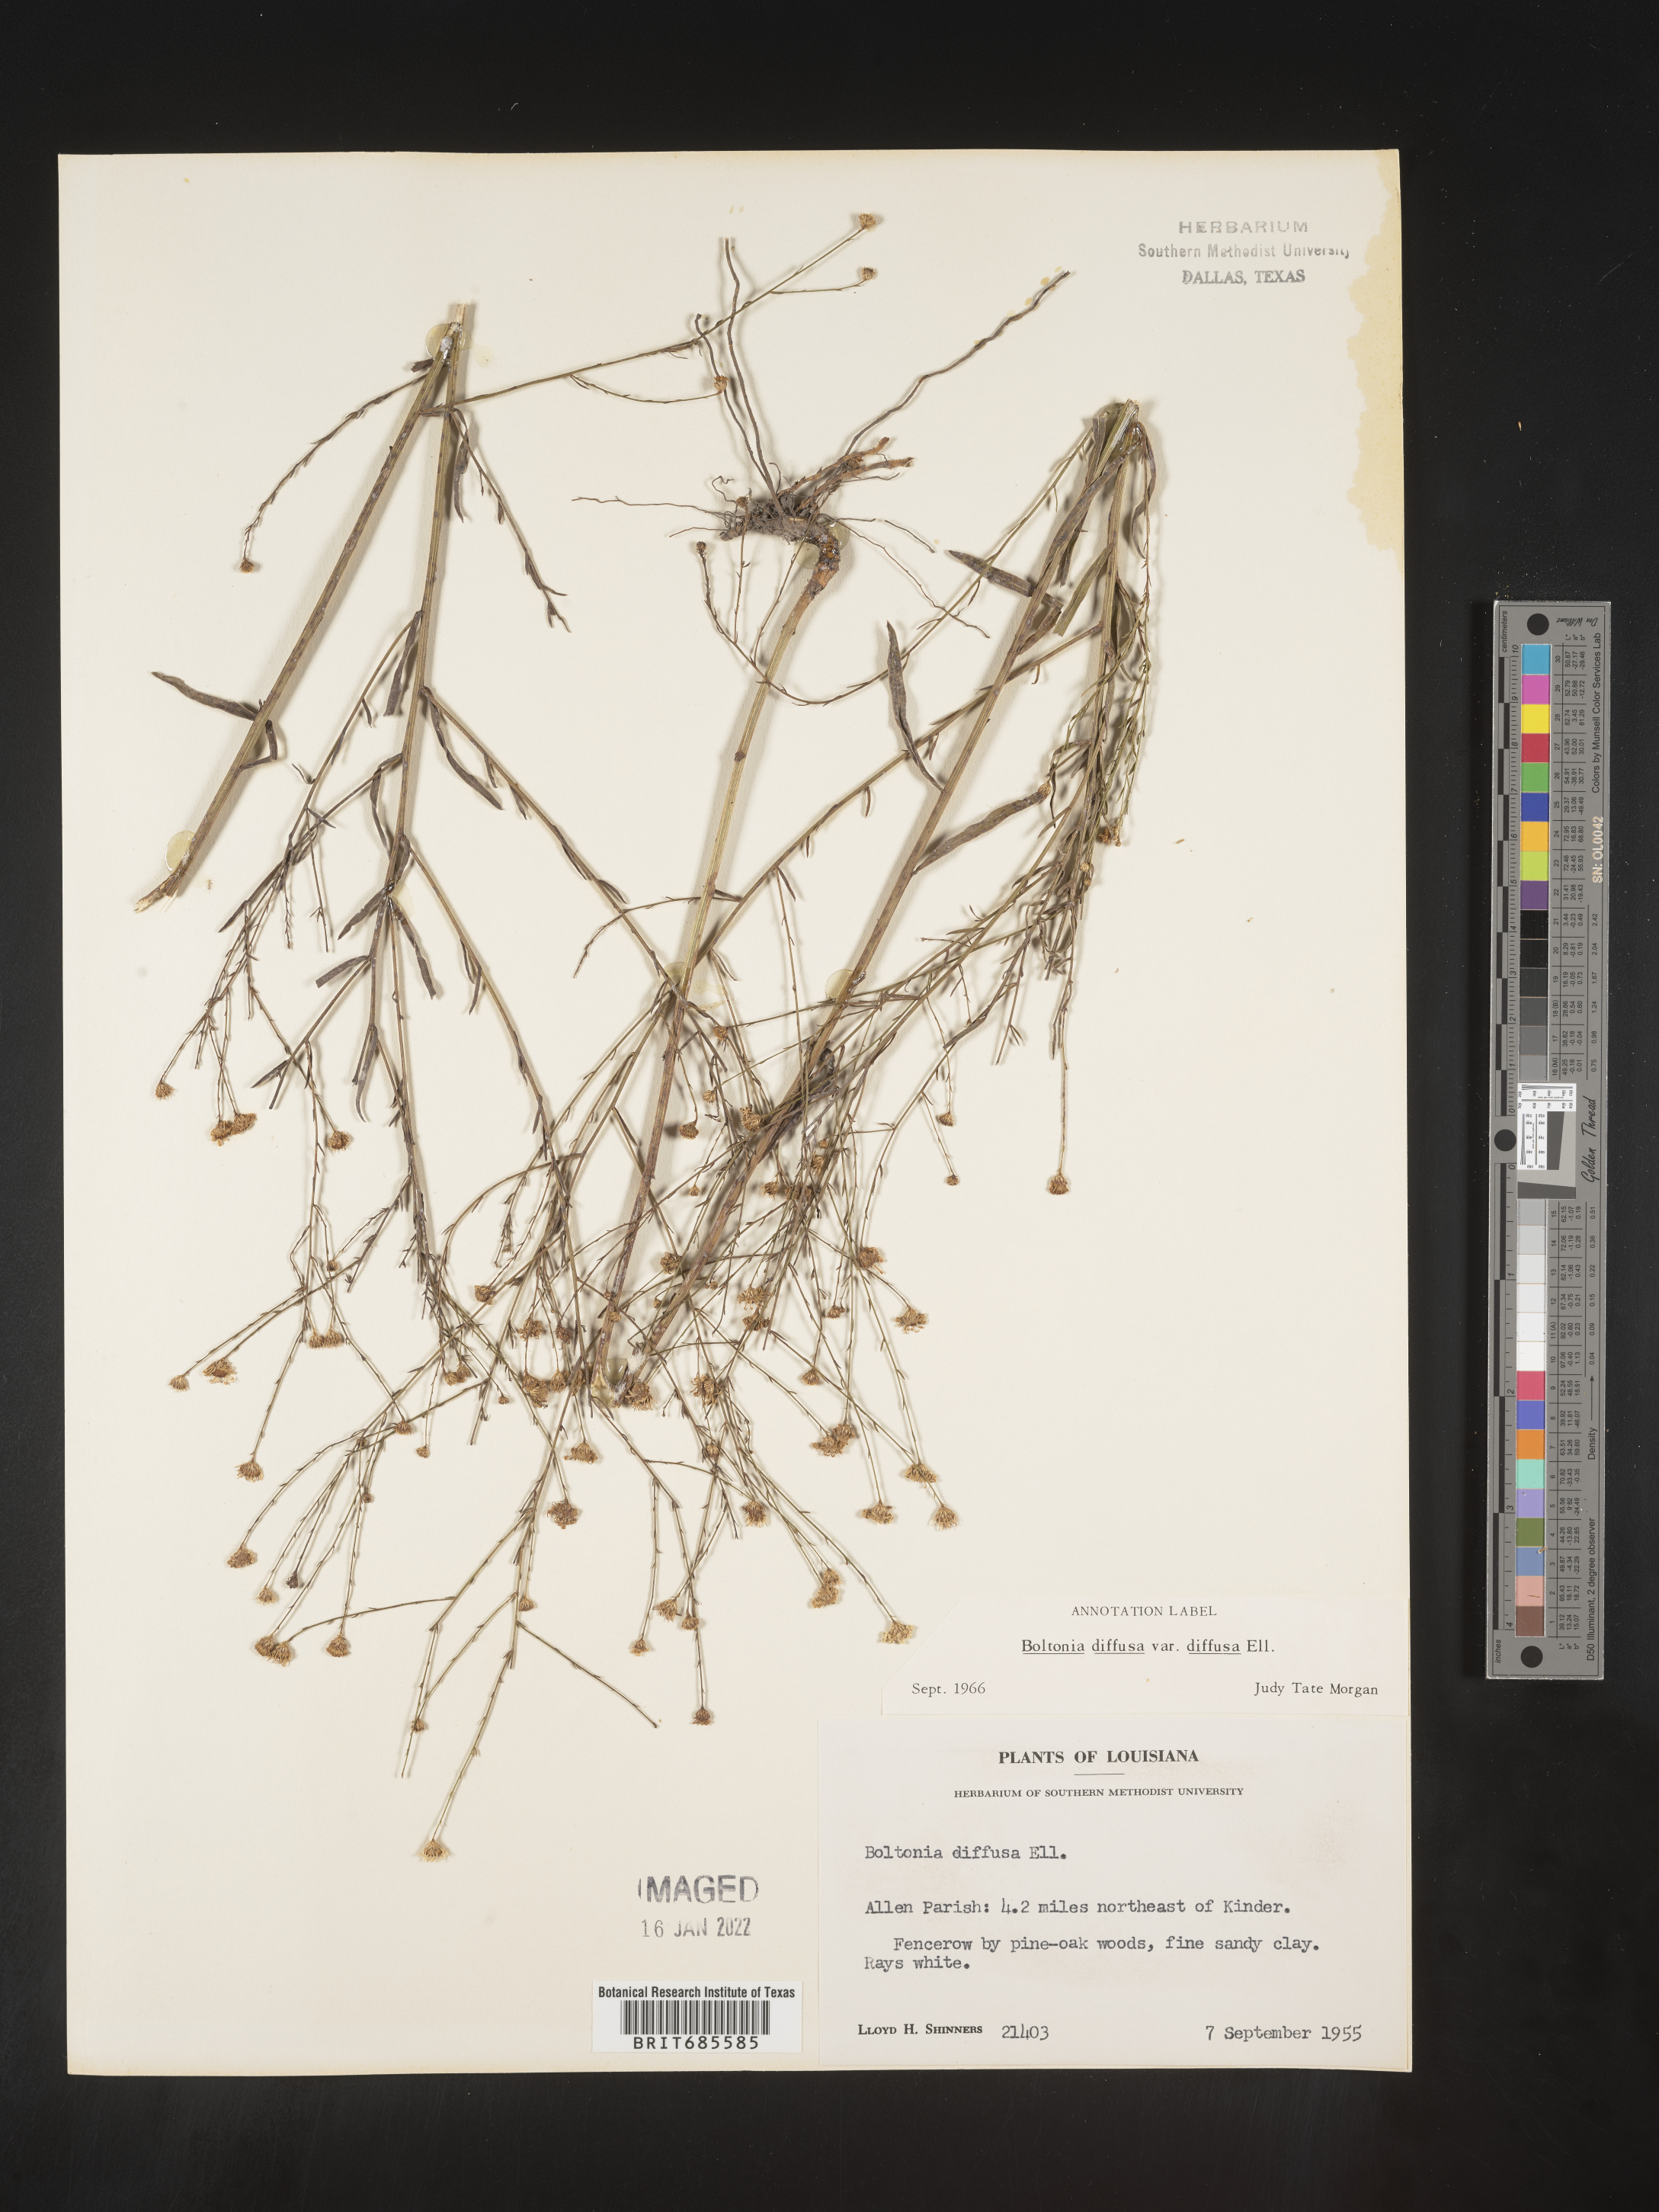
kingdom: Plantae
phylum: Tracheophyta
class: Magnoliopsida
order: Asterales
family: Asteraceae
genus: Boltonia
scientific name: Boltonia diffusa
